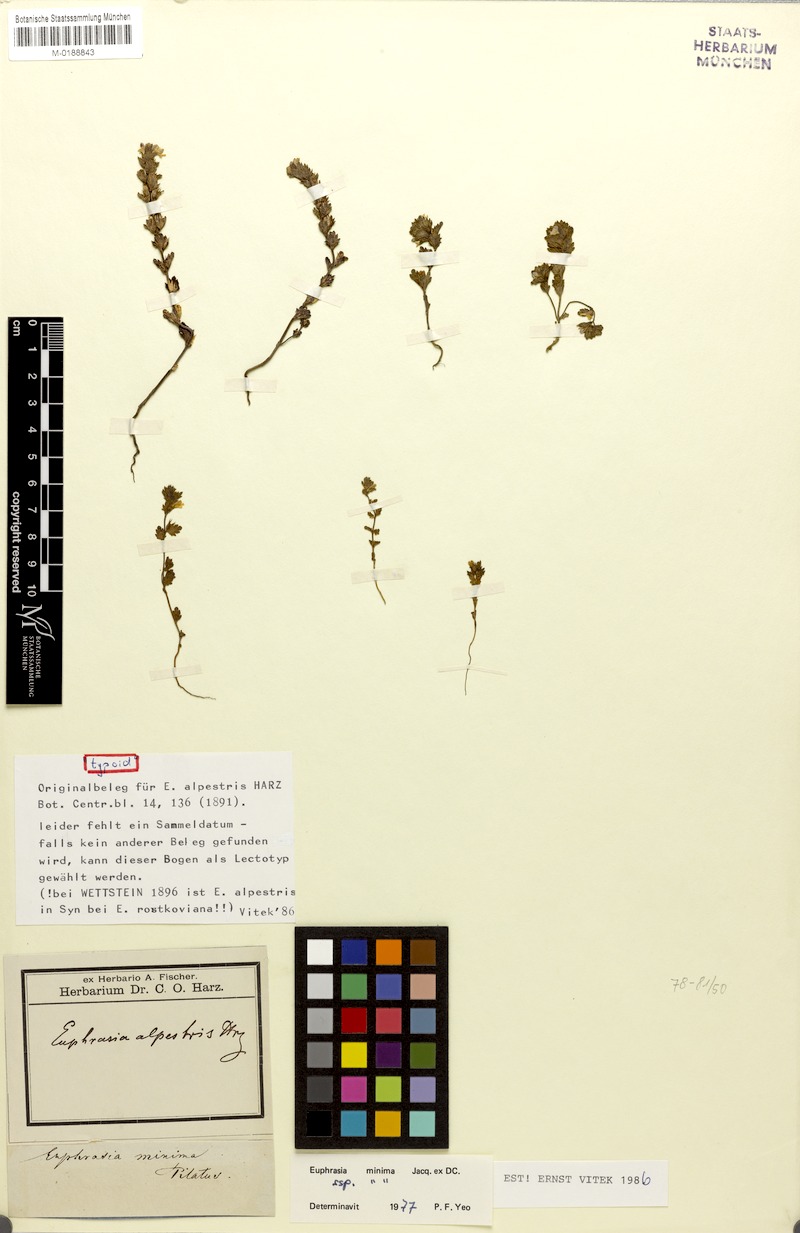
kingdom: Plantae
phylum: Tracheophyta
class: Magnoliopsida
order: Lamiales
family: Orobanchaceae
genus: Euphrasia
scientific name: Euphrasia minima
